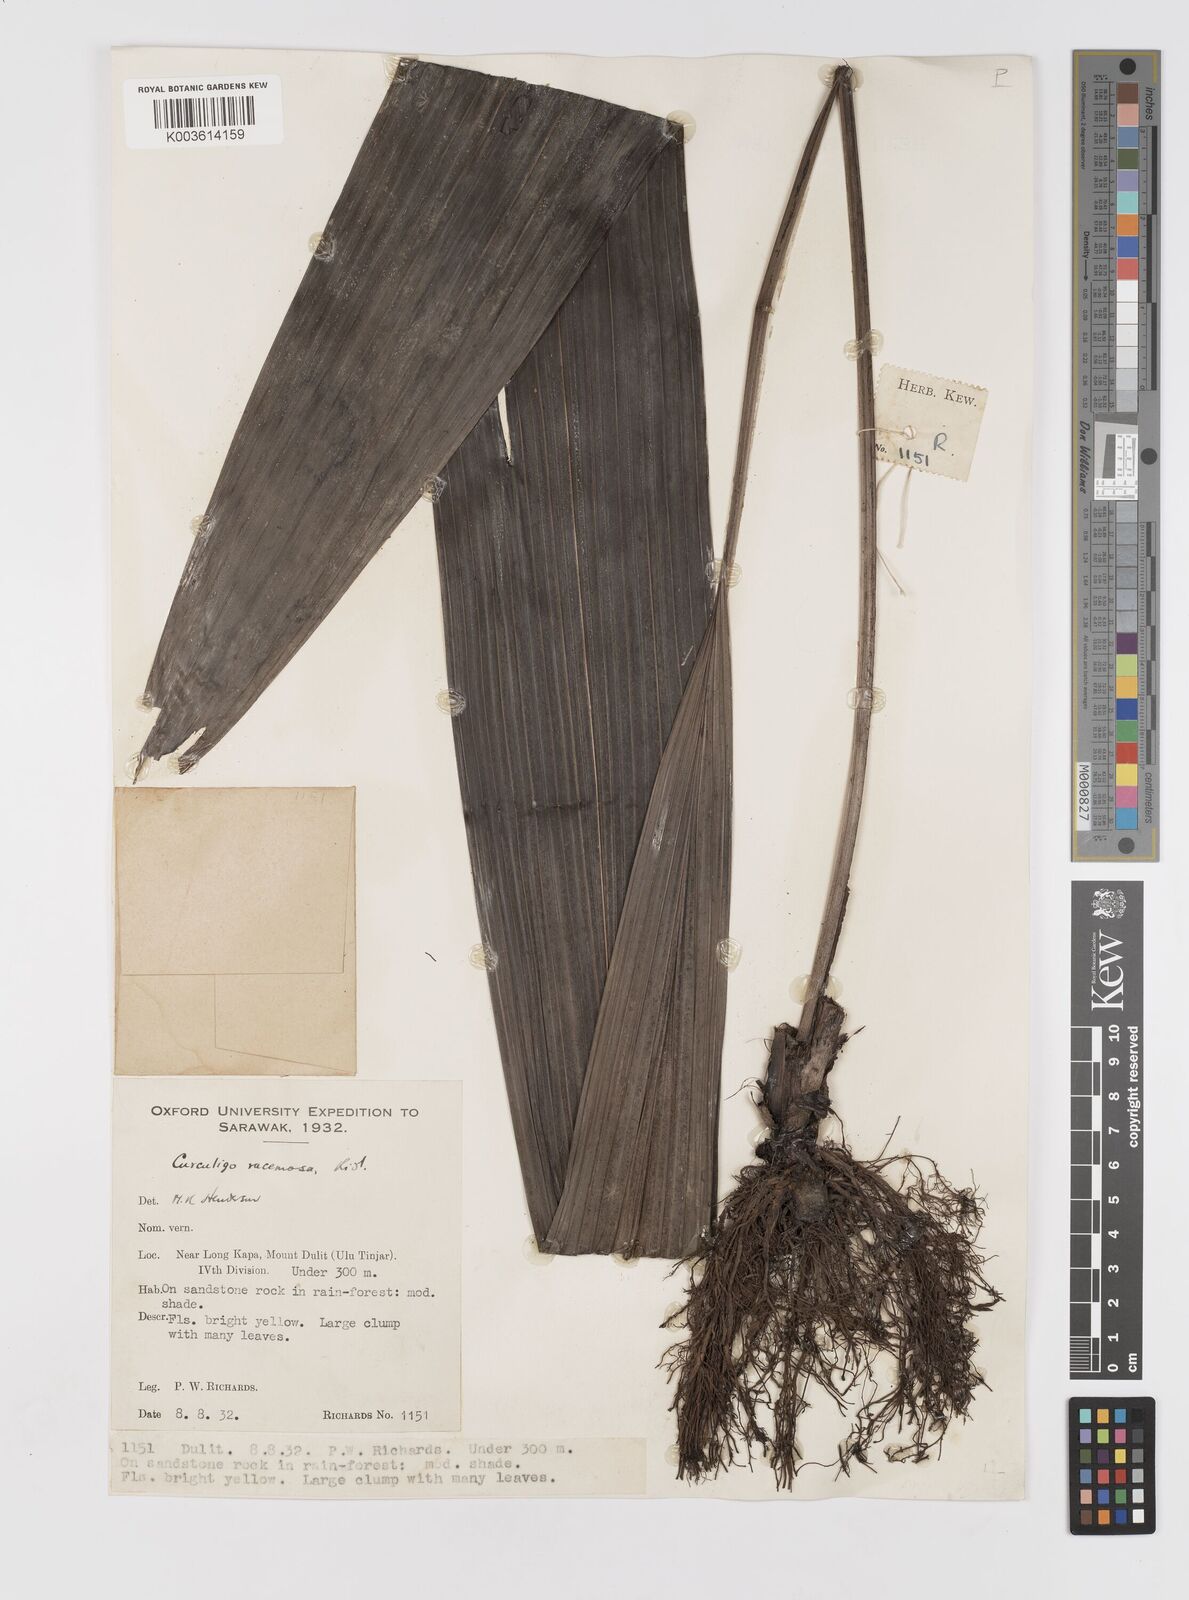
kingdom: Plantae
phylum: Tracheophyta
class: Liliopsida
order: Asparagales
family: Hypoxidaceae
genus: Curculigo
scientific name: Curculigo racemosa
